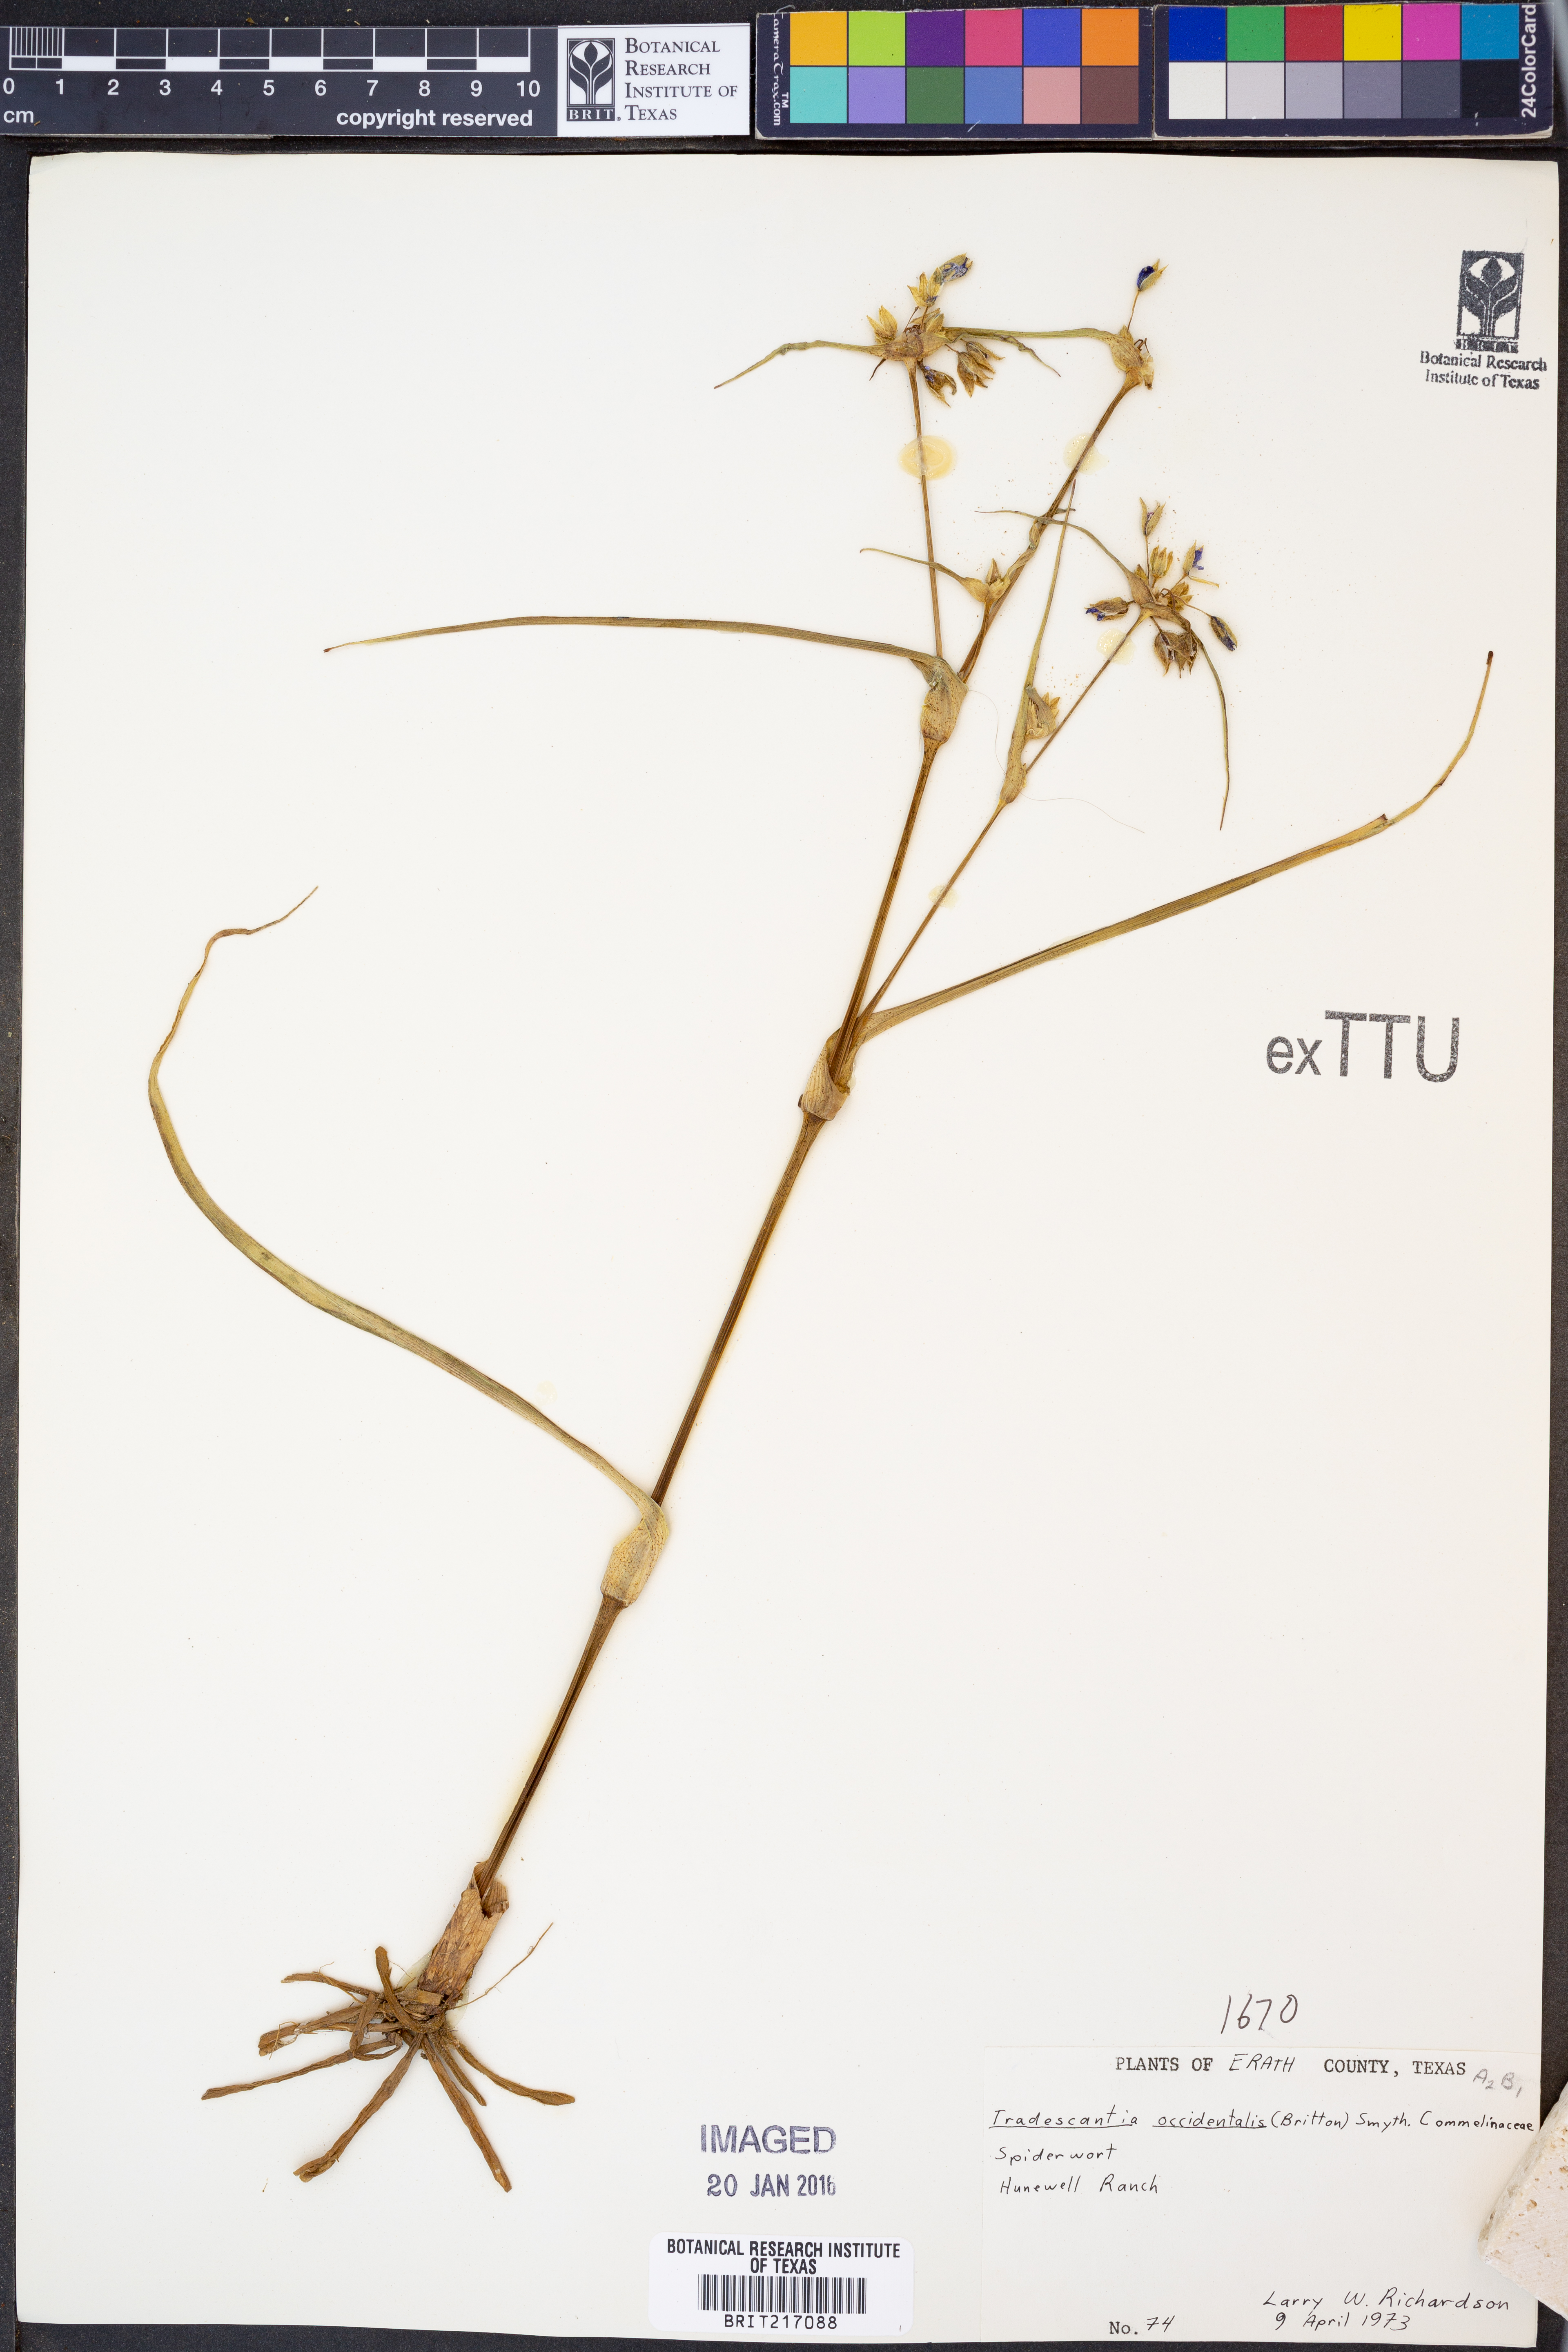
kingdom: Plantae
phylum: Tracheophyta
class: Liliopsida
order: Commelinales
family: Commelinaceae
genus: Tradescantia
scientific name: Tradescantia occidentalis
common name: Prairie spiderwort
